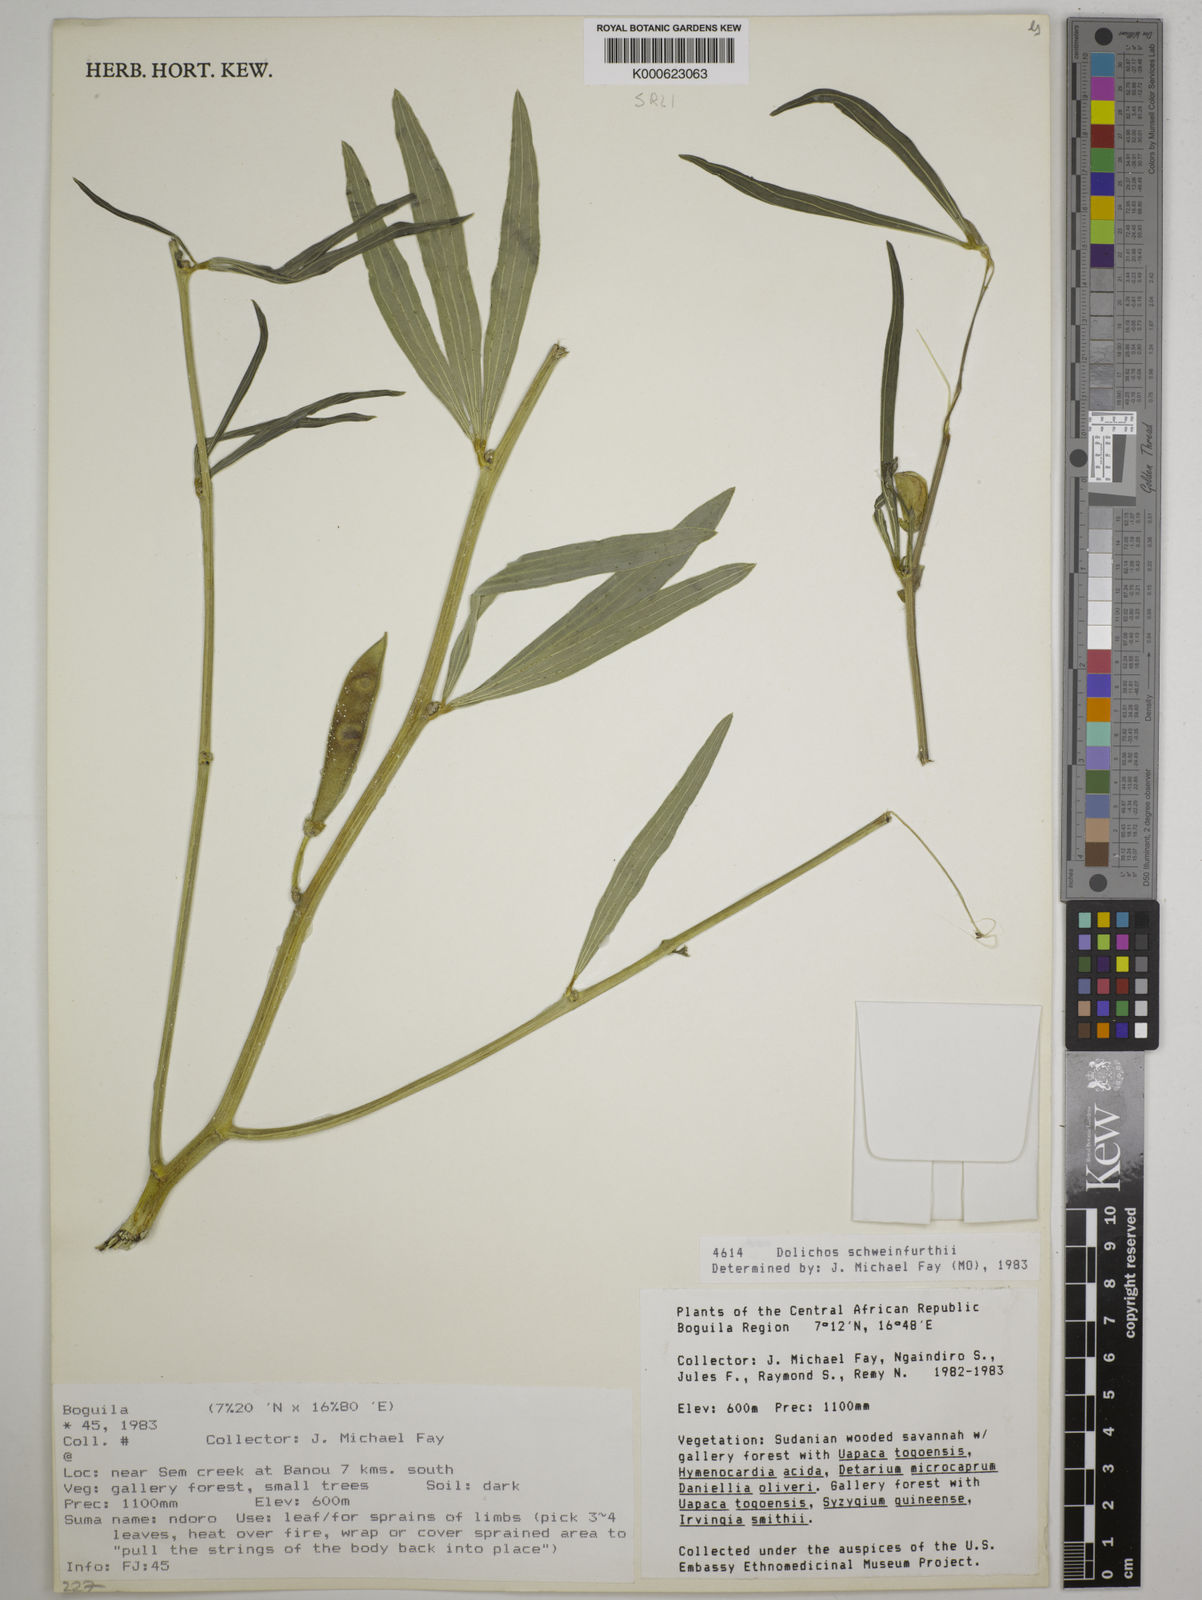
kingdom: Plantae
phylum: Tracheophyta
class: Magnoliopsida
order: Fabales
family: Fabaceae
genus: Dolichos
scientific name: Dolichos
